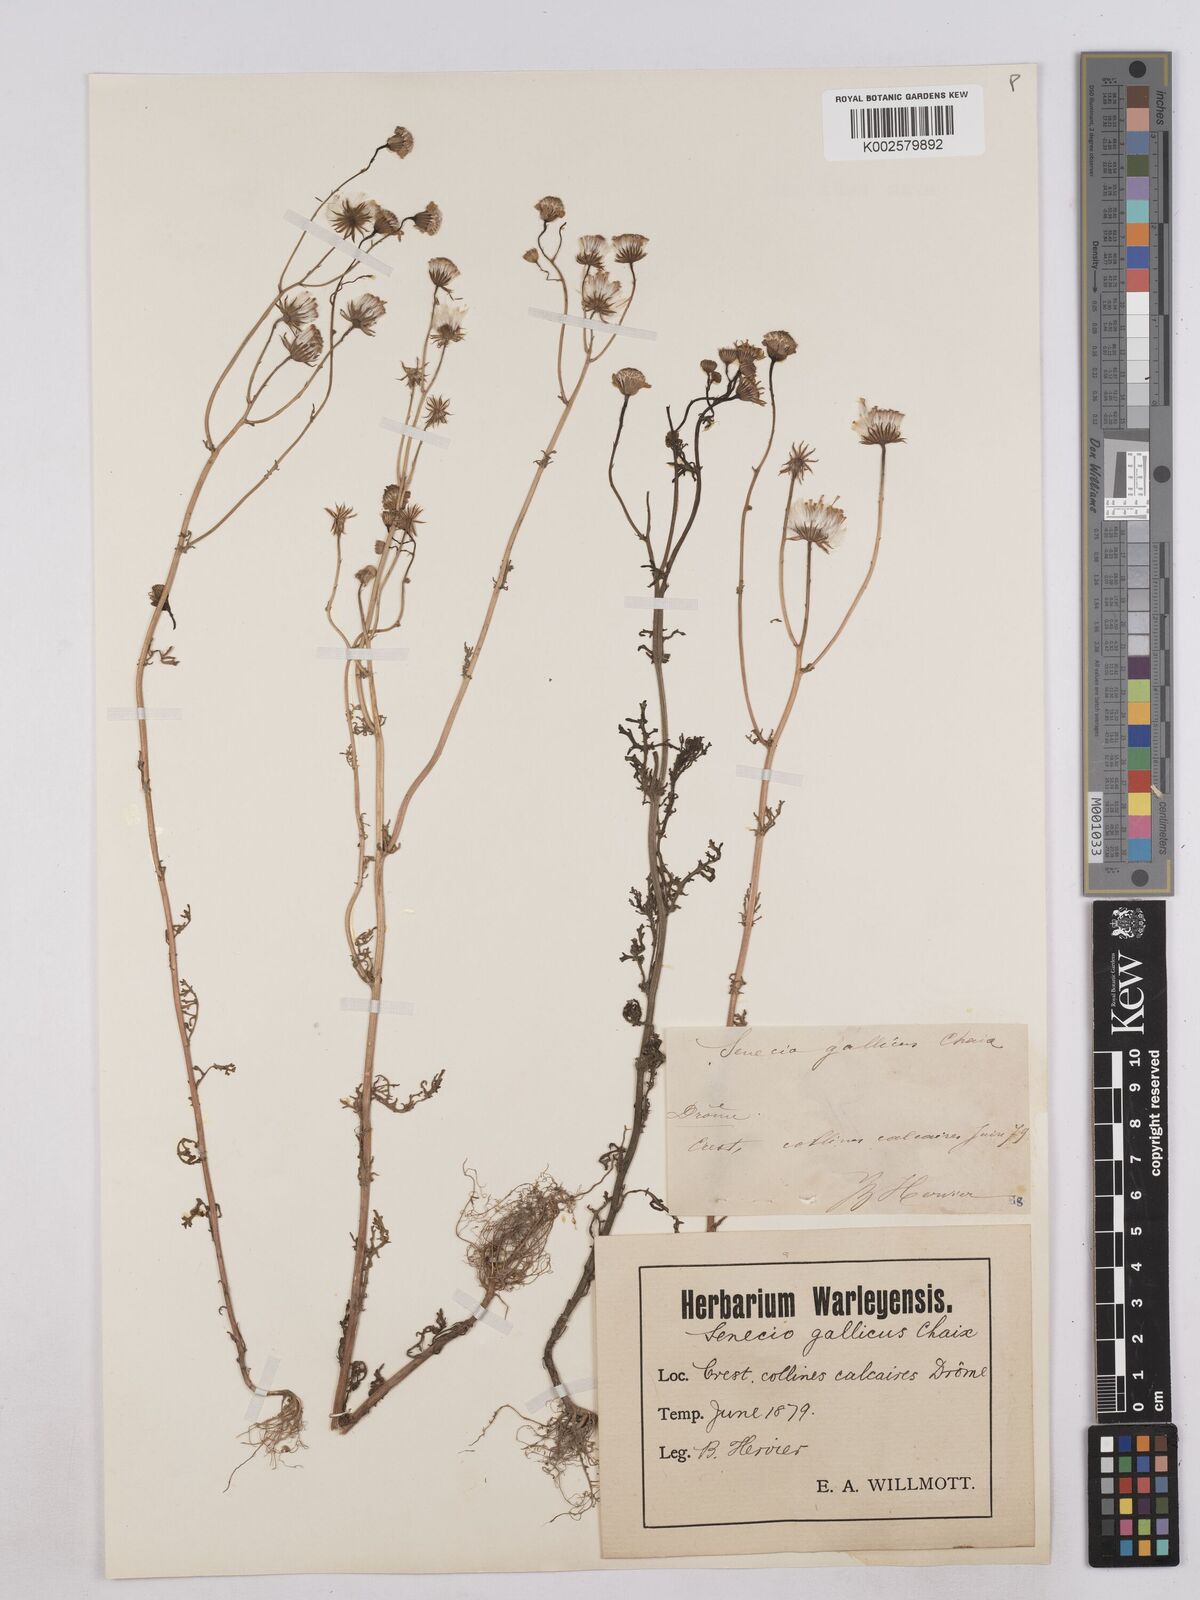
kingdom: Plantae
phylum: Tracheophyta
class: Magnoliopsida
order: Asterales
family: Asteraceae
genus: Senecio
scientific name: Senecio gallicus
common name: French groundsel
